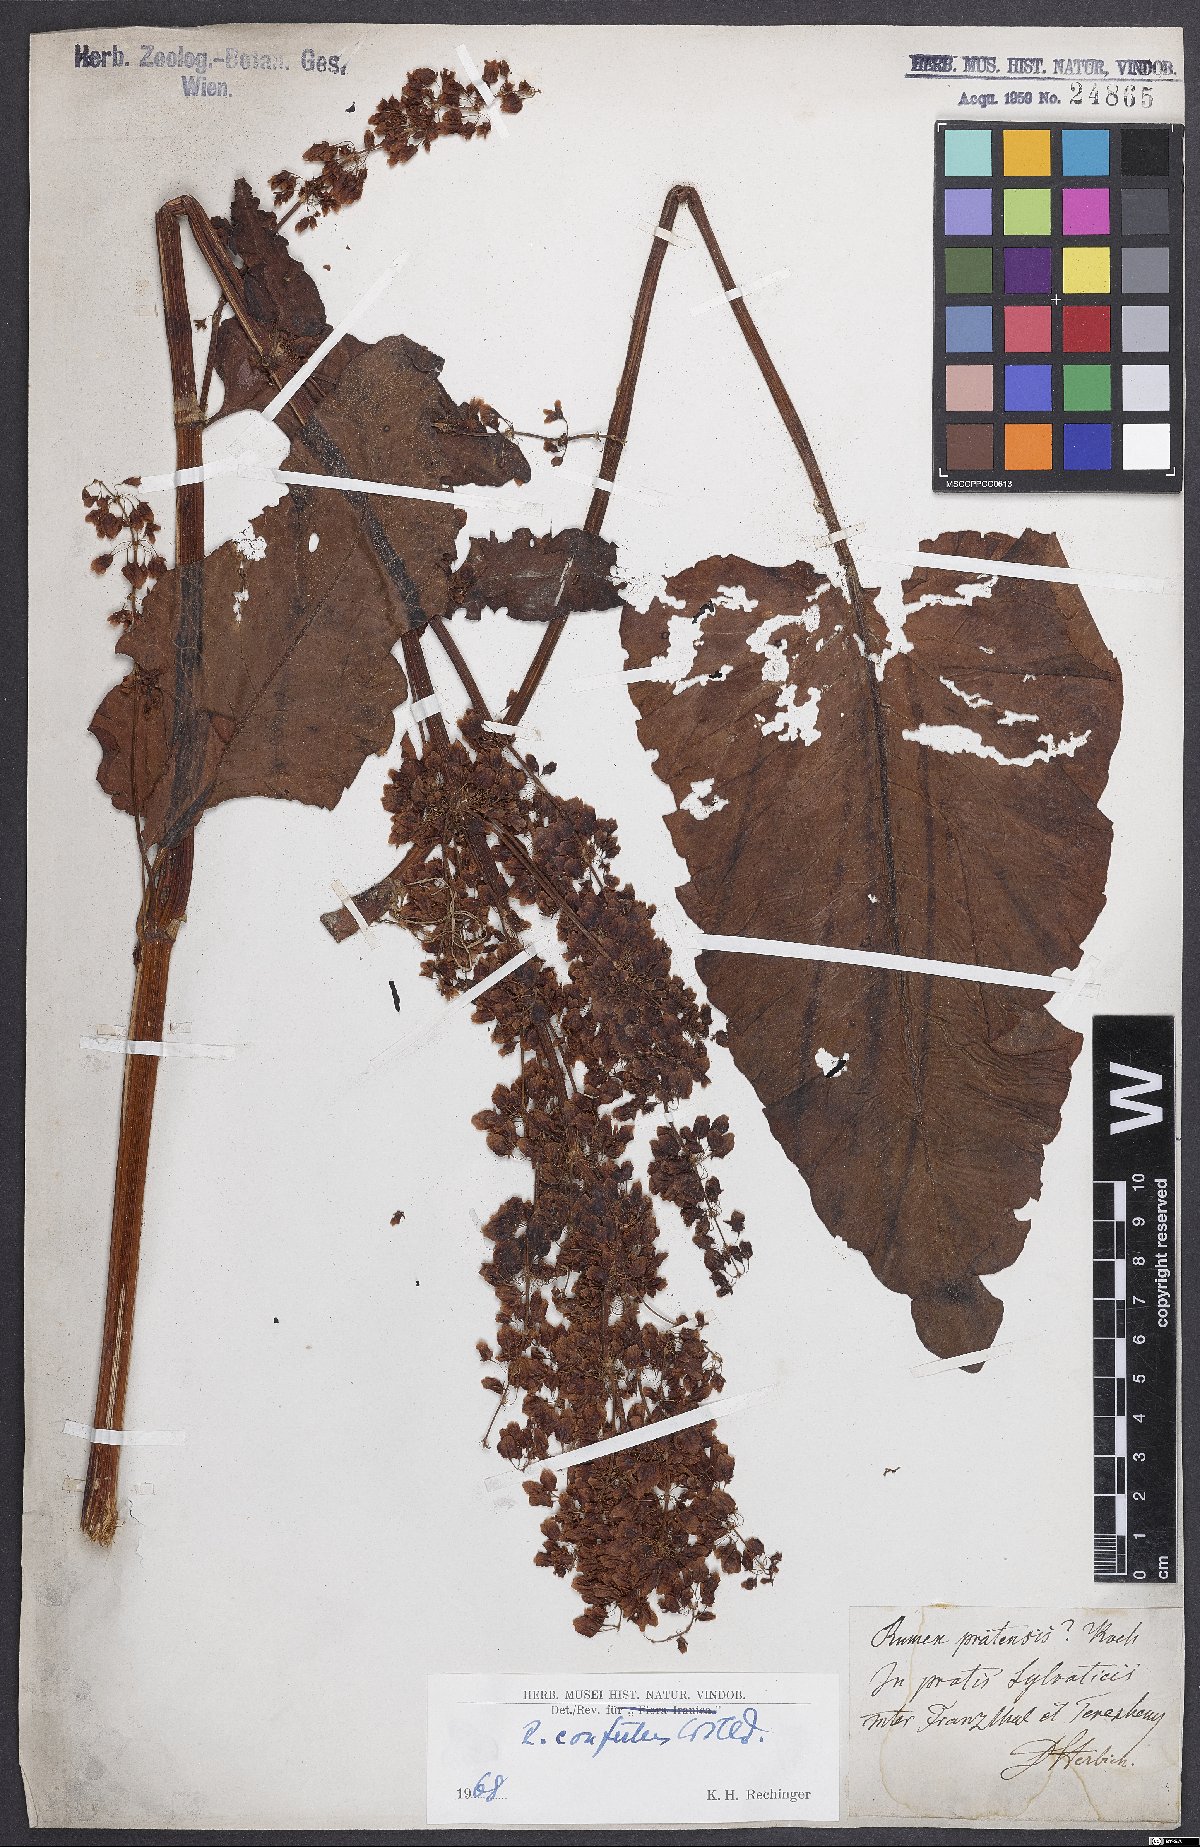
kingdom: Plantae
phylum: Tracheophyta
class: Magnoliopsida
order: Caryophyllales
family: Polygonaceae
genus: Rumex
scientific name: Rumex confertus
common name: Russian dock
